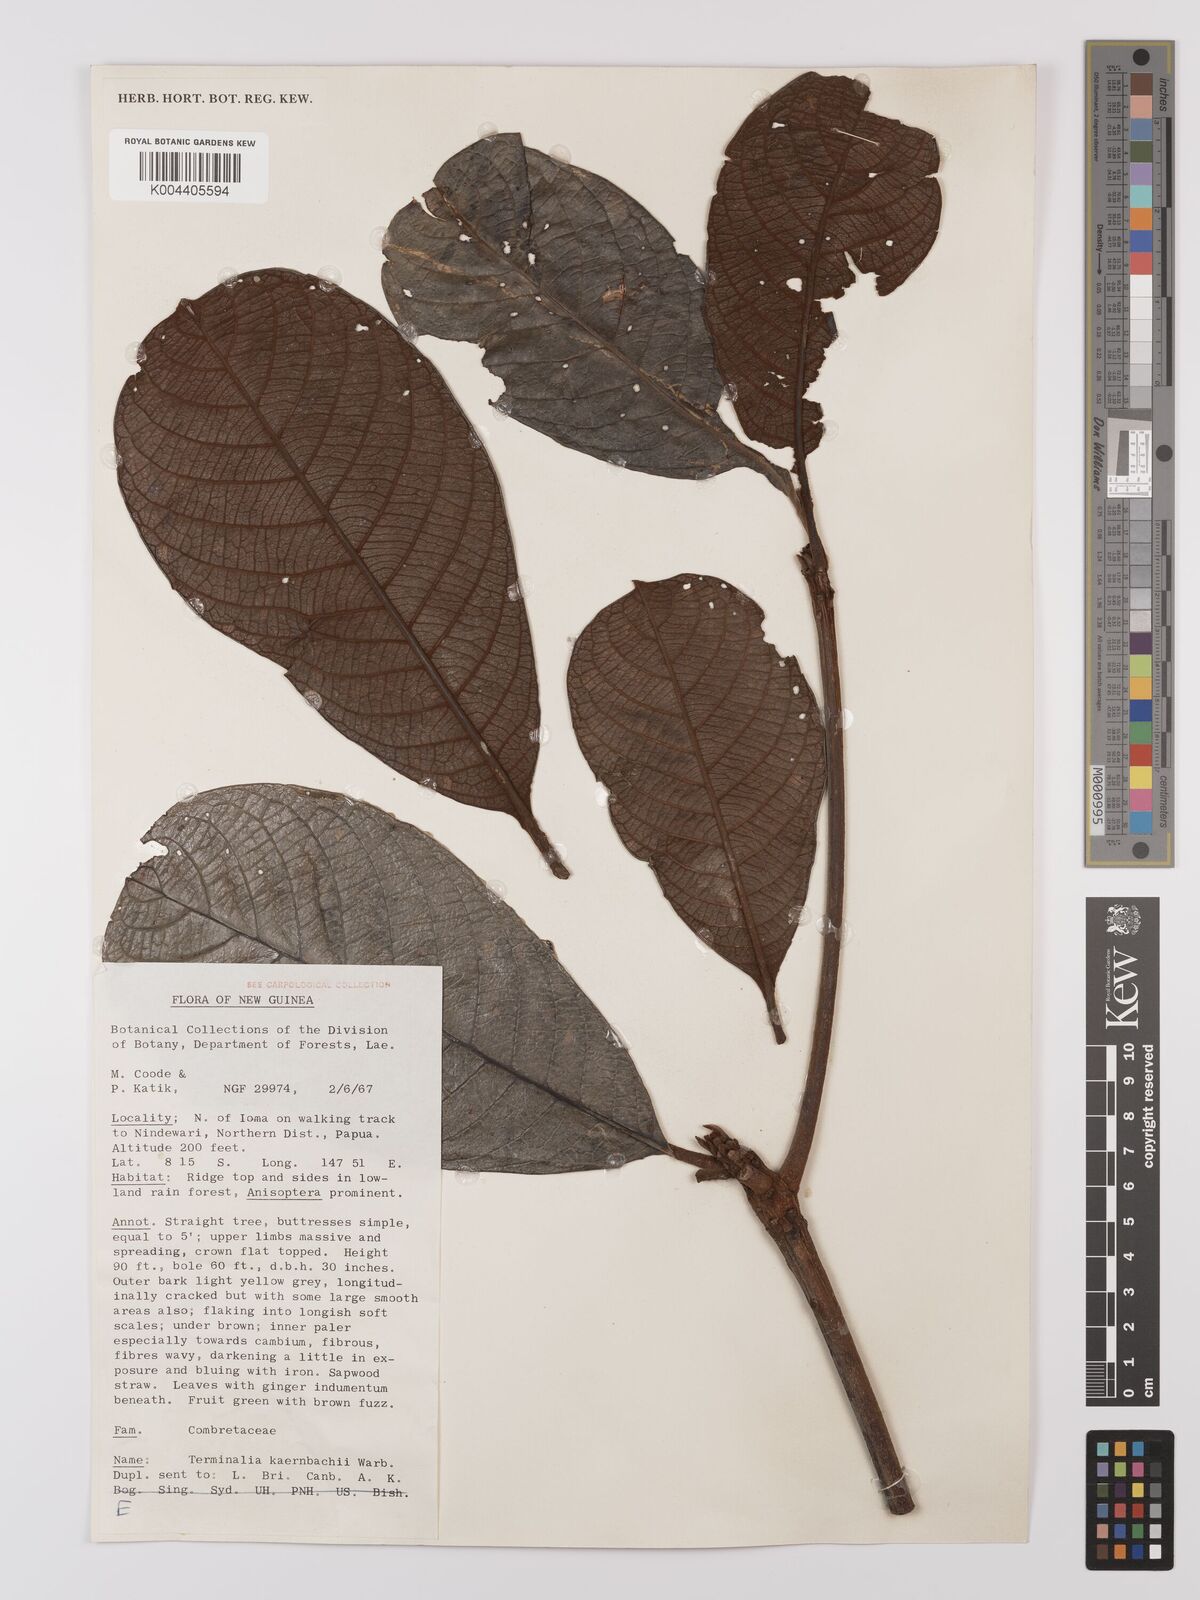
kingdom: Plantae
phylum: Tracheophyta
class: Magnoliopsida
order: Myrtales
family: Combretaceae
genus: Terminalia
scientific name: Terminalia kaernbachii
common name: Okari-nut
